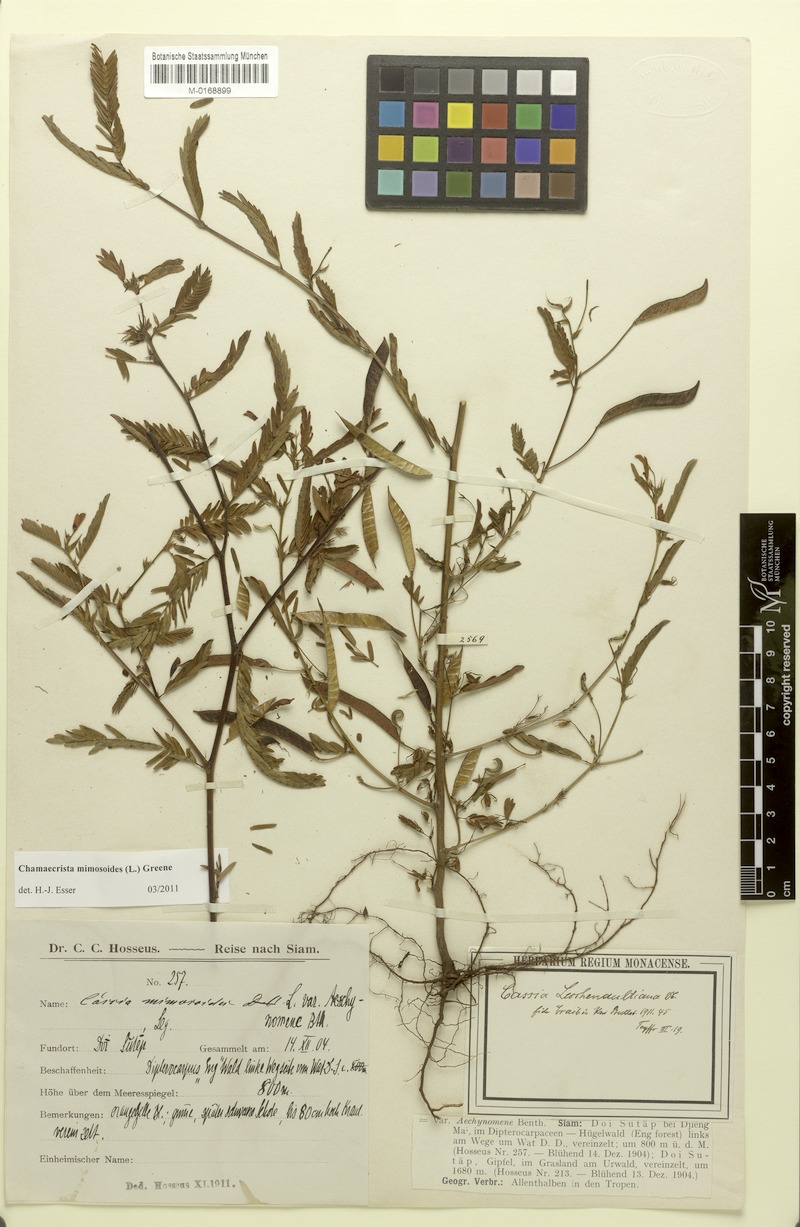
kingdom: Plantae
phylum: Tracheophyta
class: Magnoliopsida
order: Fabales
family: Fabaceae
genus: Chamaecrista
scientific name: Chamaecrista mimosoides
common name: Fish-bone cassia
